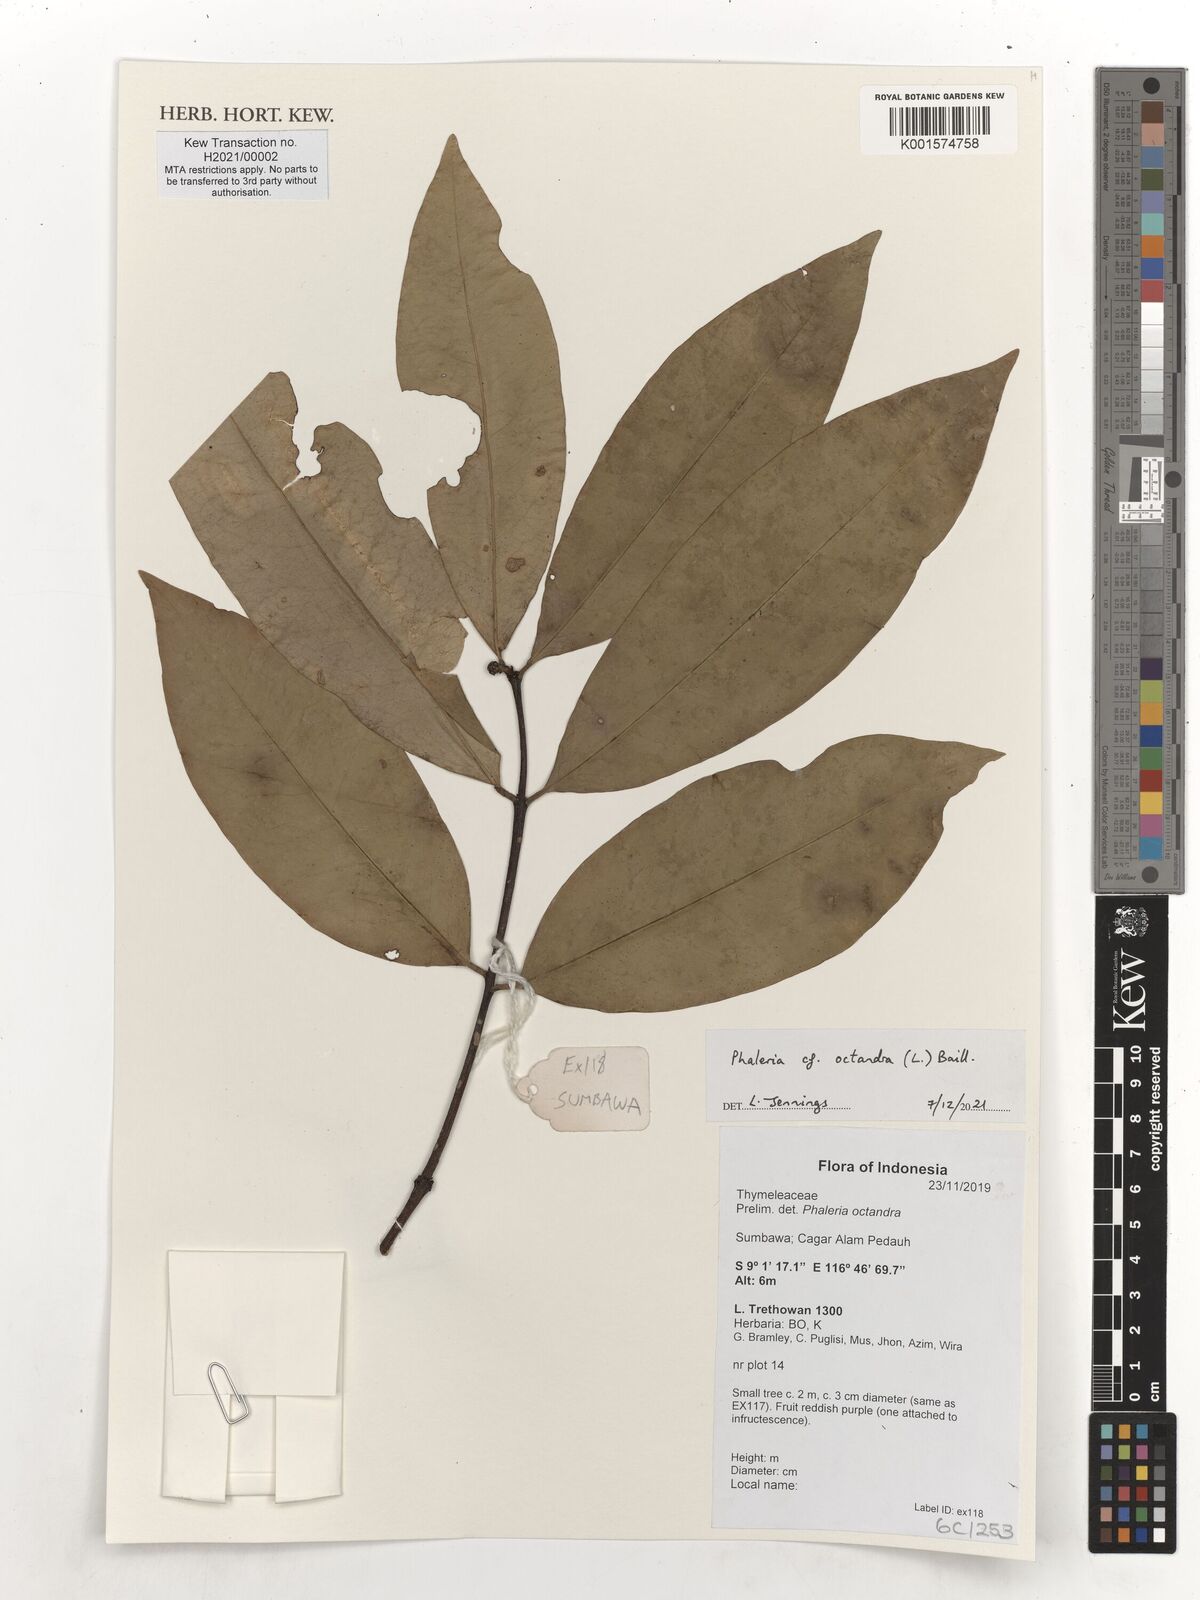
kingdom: Plantae
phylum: Tracheophyta
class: Magnoliopsida
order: Malvales
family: Thymelaeaceae
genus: Phaleria
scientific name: Phaleria octandra
